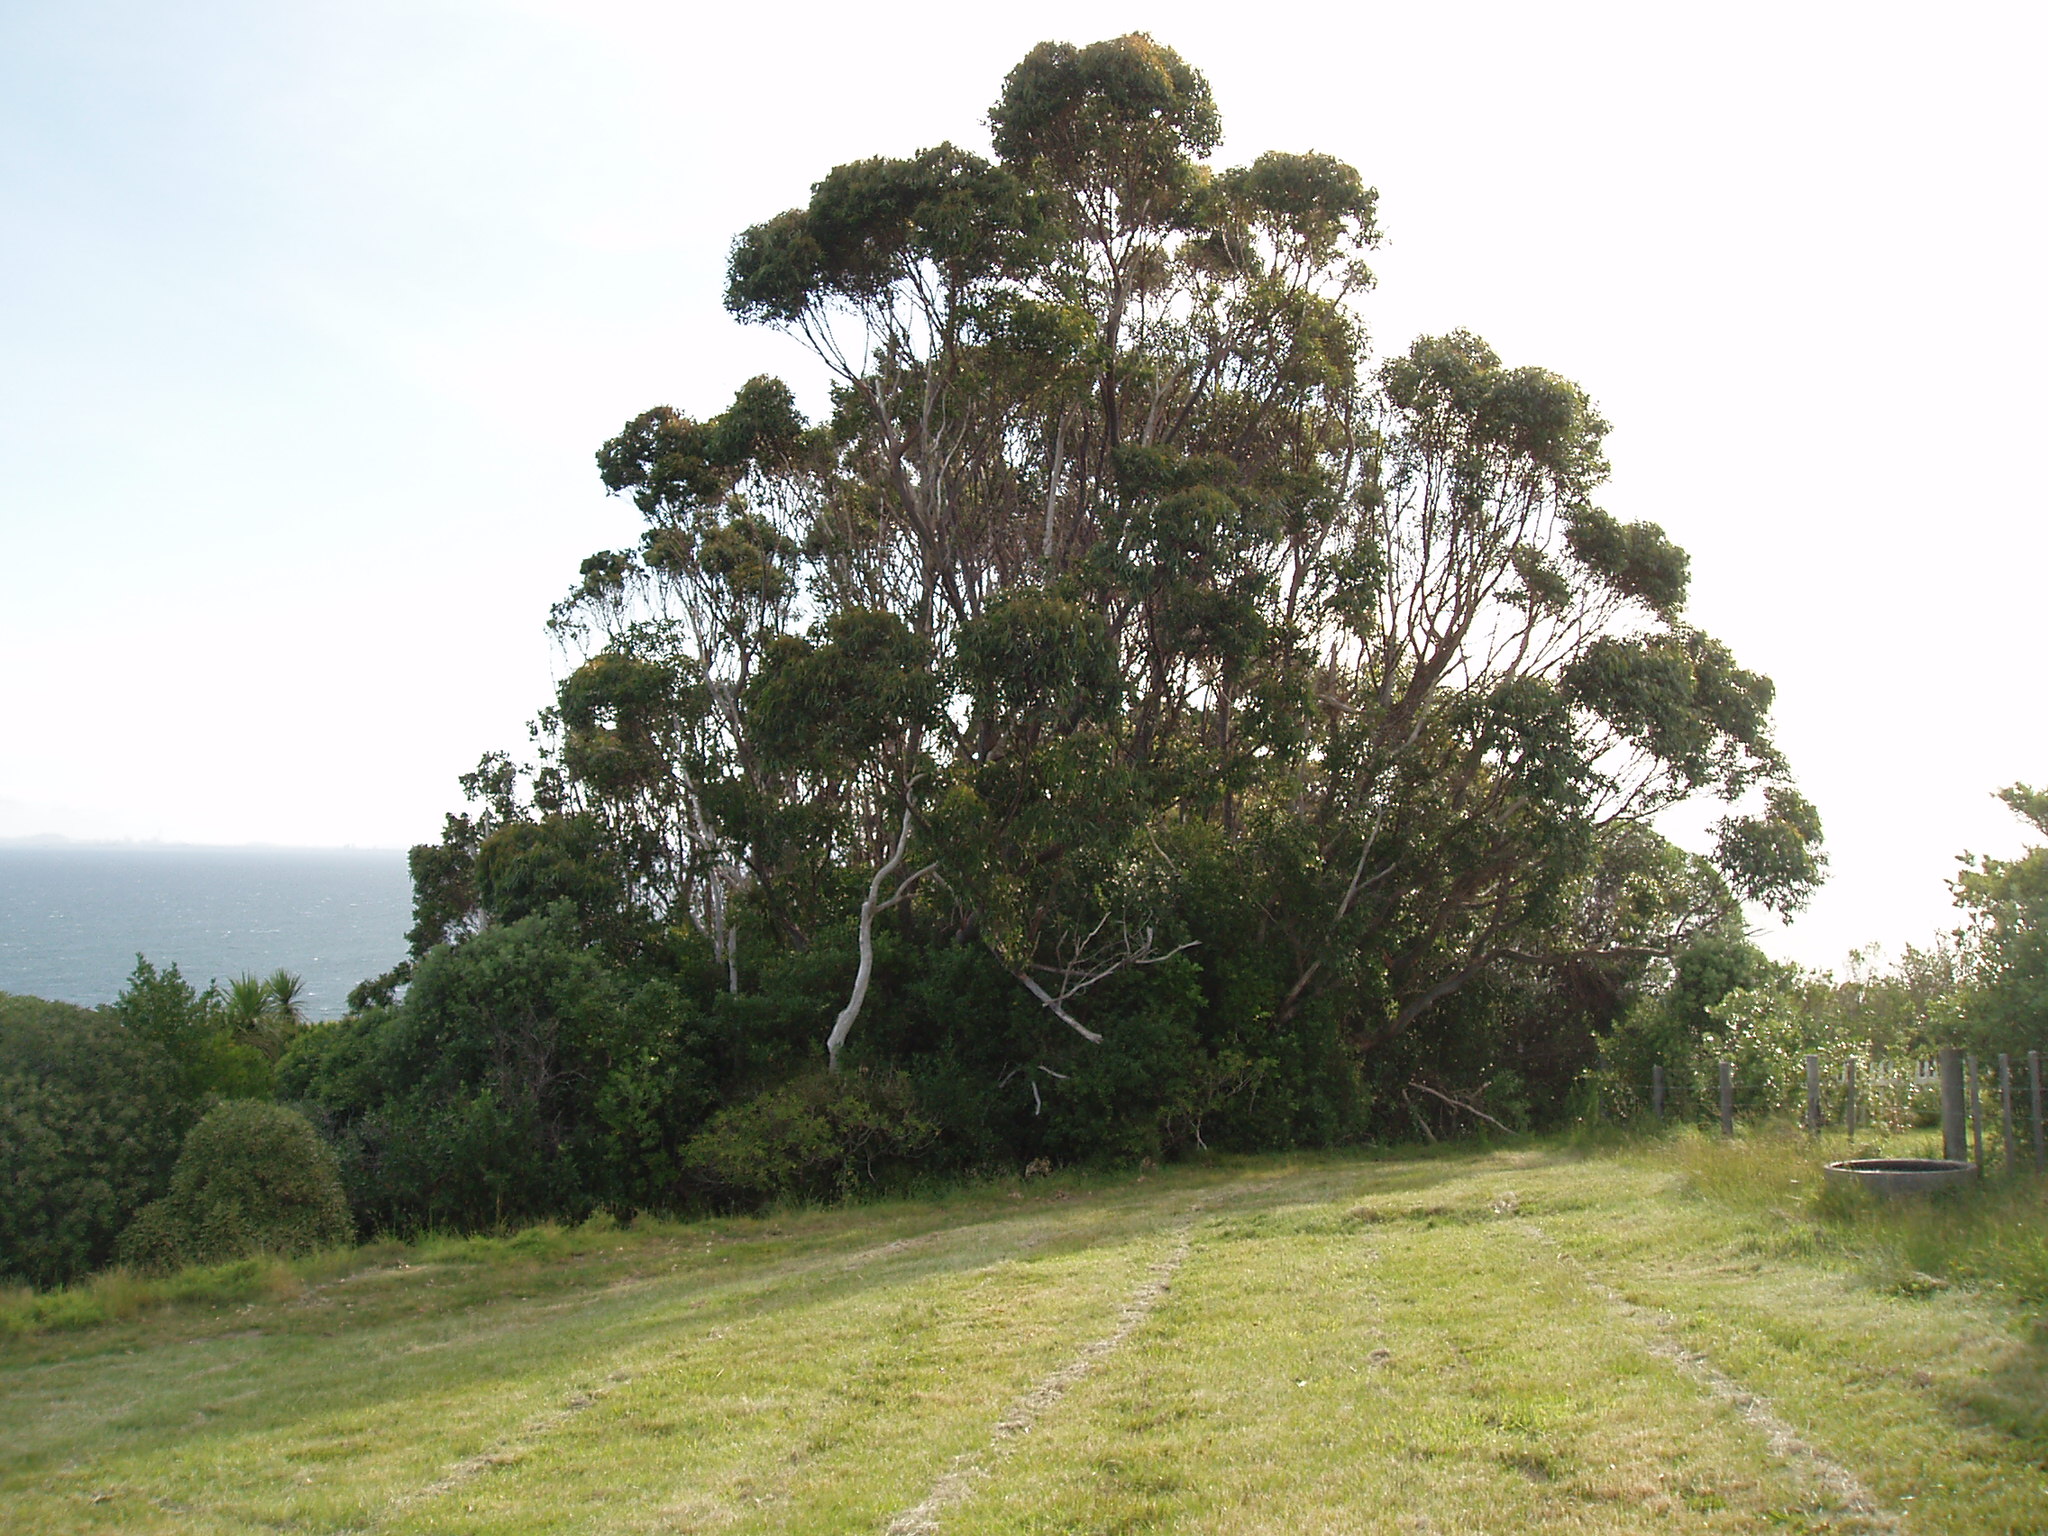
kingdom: Plantae
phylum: Tracheophyta
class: Magnoliopsida
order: Myrtales
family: Myrtaceae
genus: Eucalyptus
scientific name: Eucalyptus saligna
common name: Blue gum
